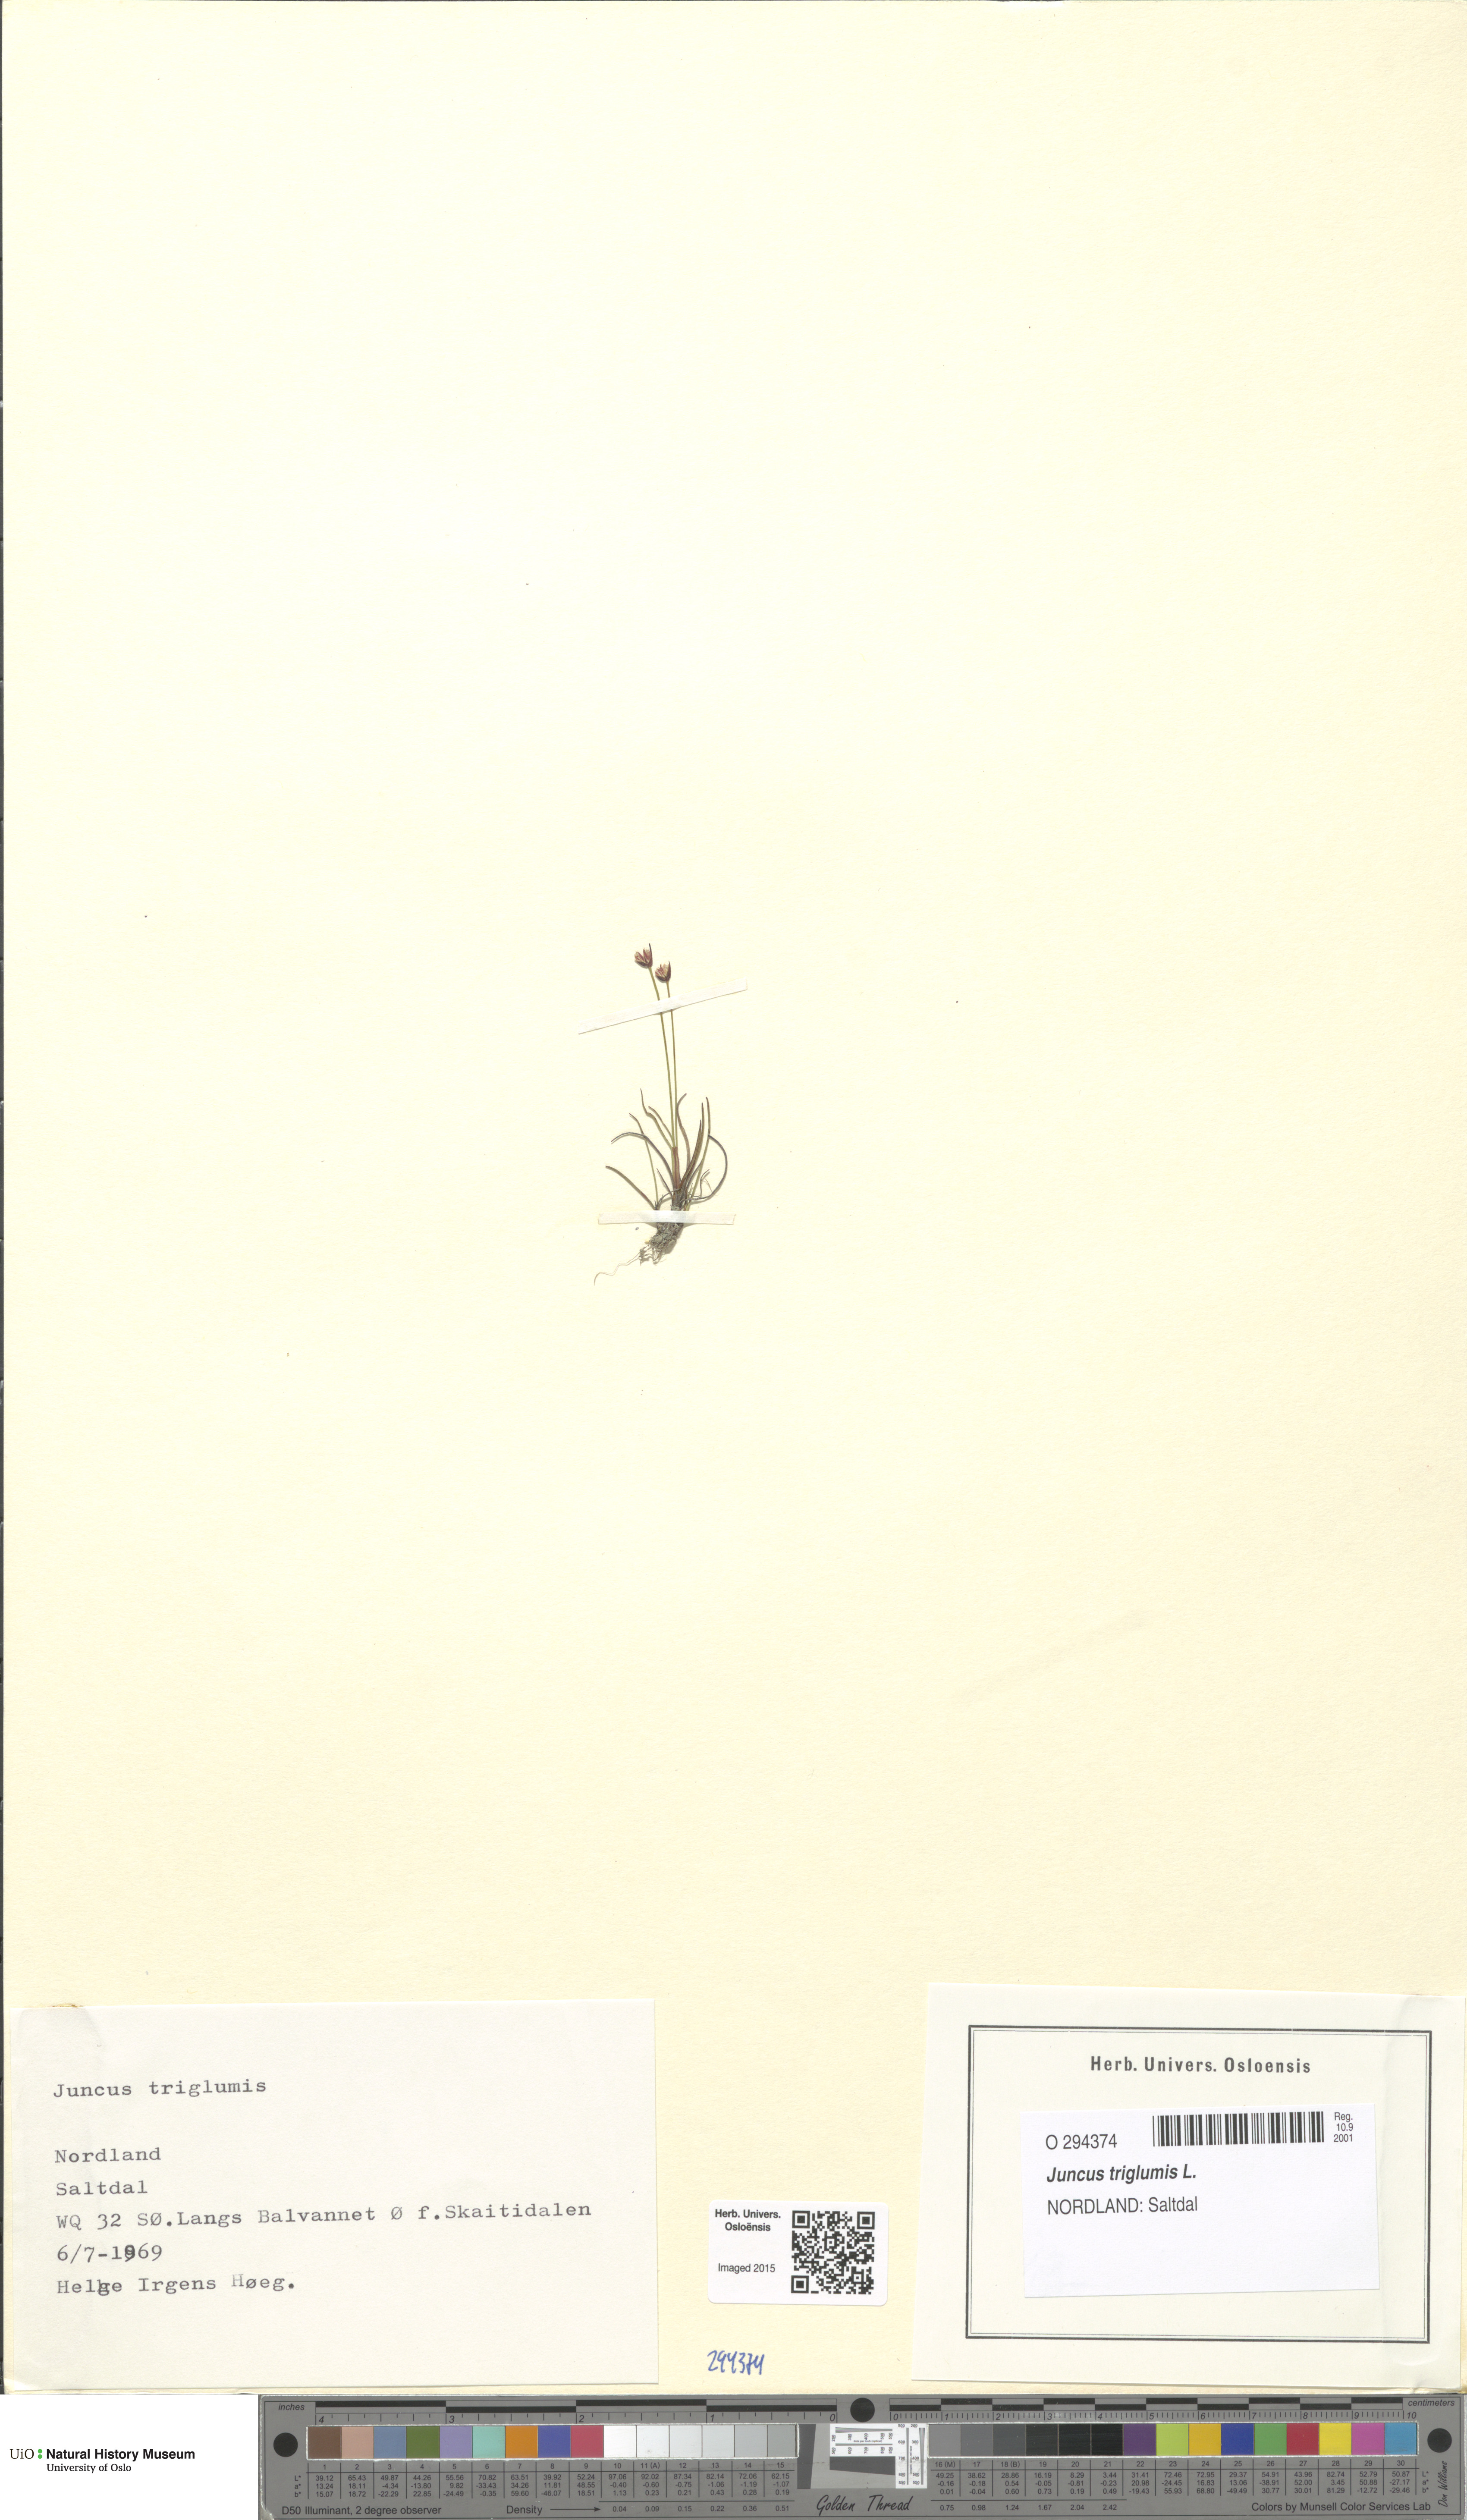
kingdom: Plantae
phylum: Tracheophyta
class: Liliopsida
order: Poales
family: Juncaceae
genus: Juncus
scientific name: Juncus triglumis
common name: Three-flowered rush
